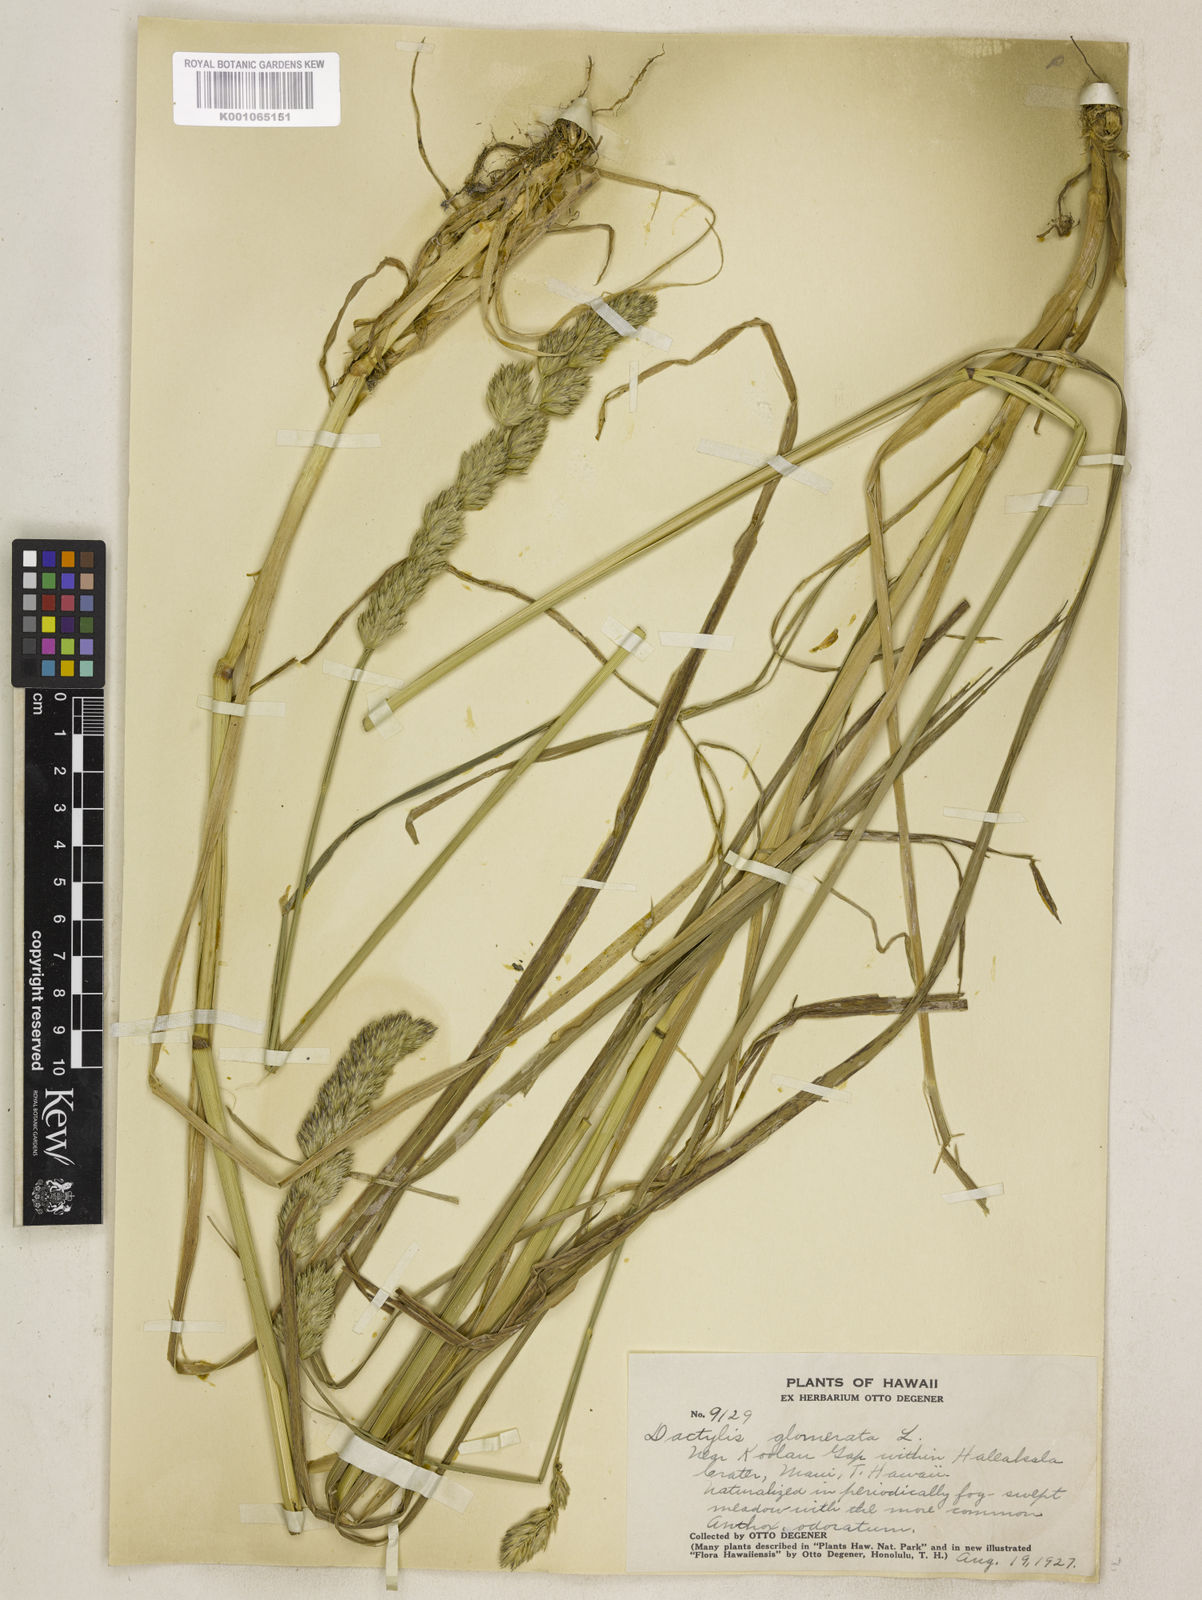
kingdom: Plantae
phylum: Tracheophyta
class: Liliopsida
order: Poales
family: Poaceae
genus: Dactylis
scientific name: Dactylis glomerata
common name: Orchardgrass
